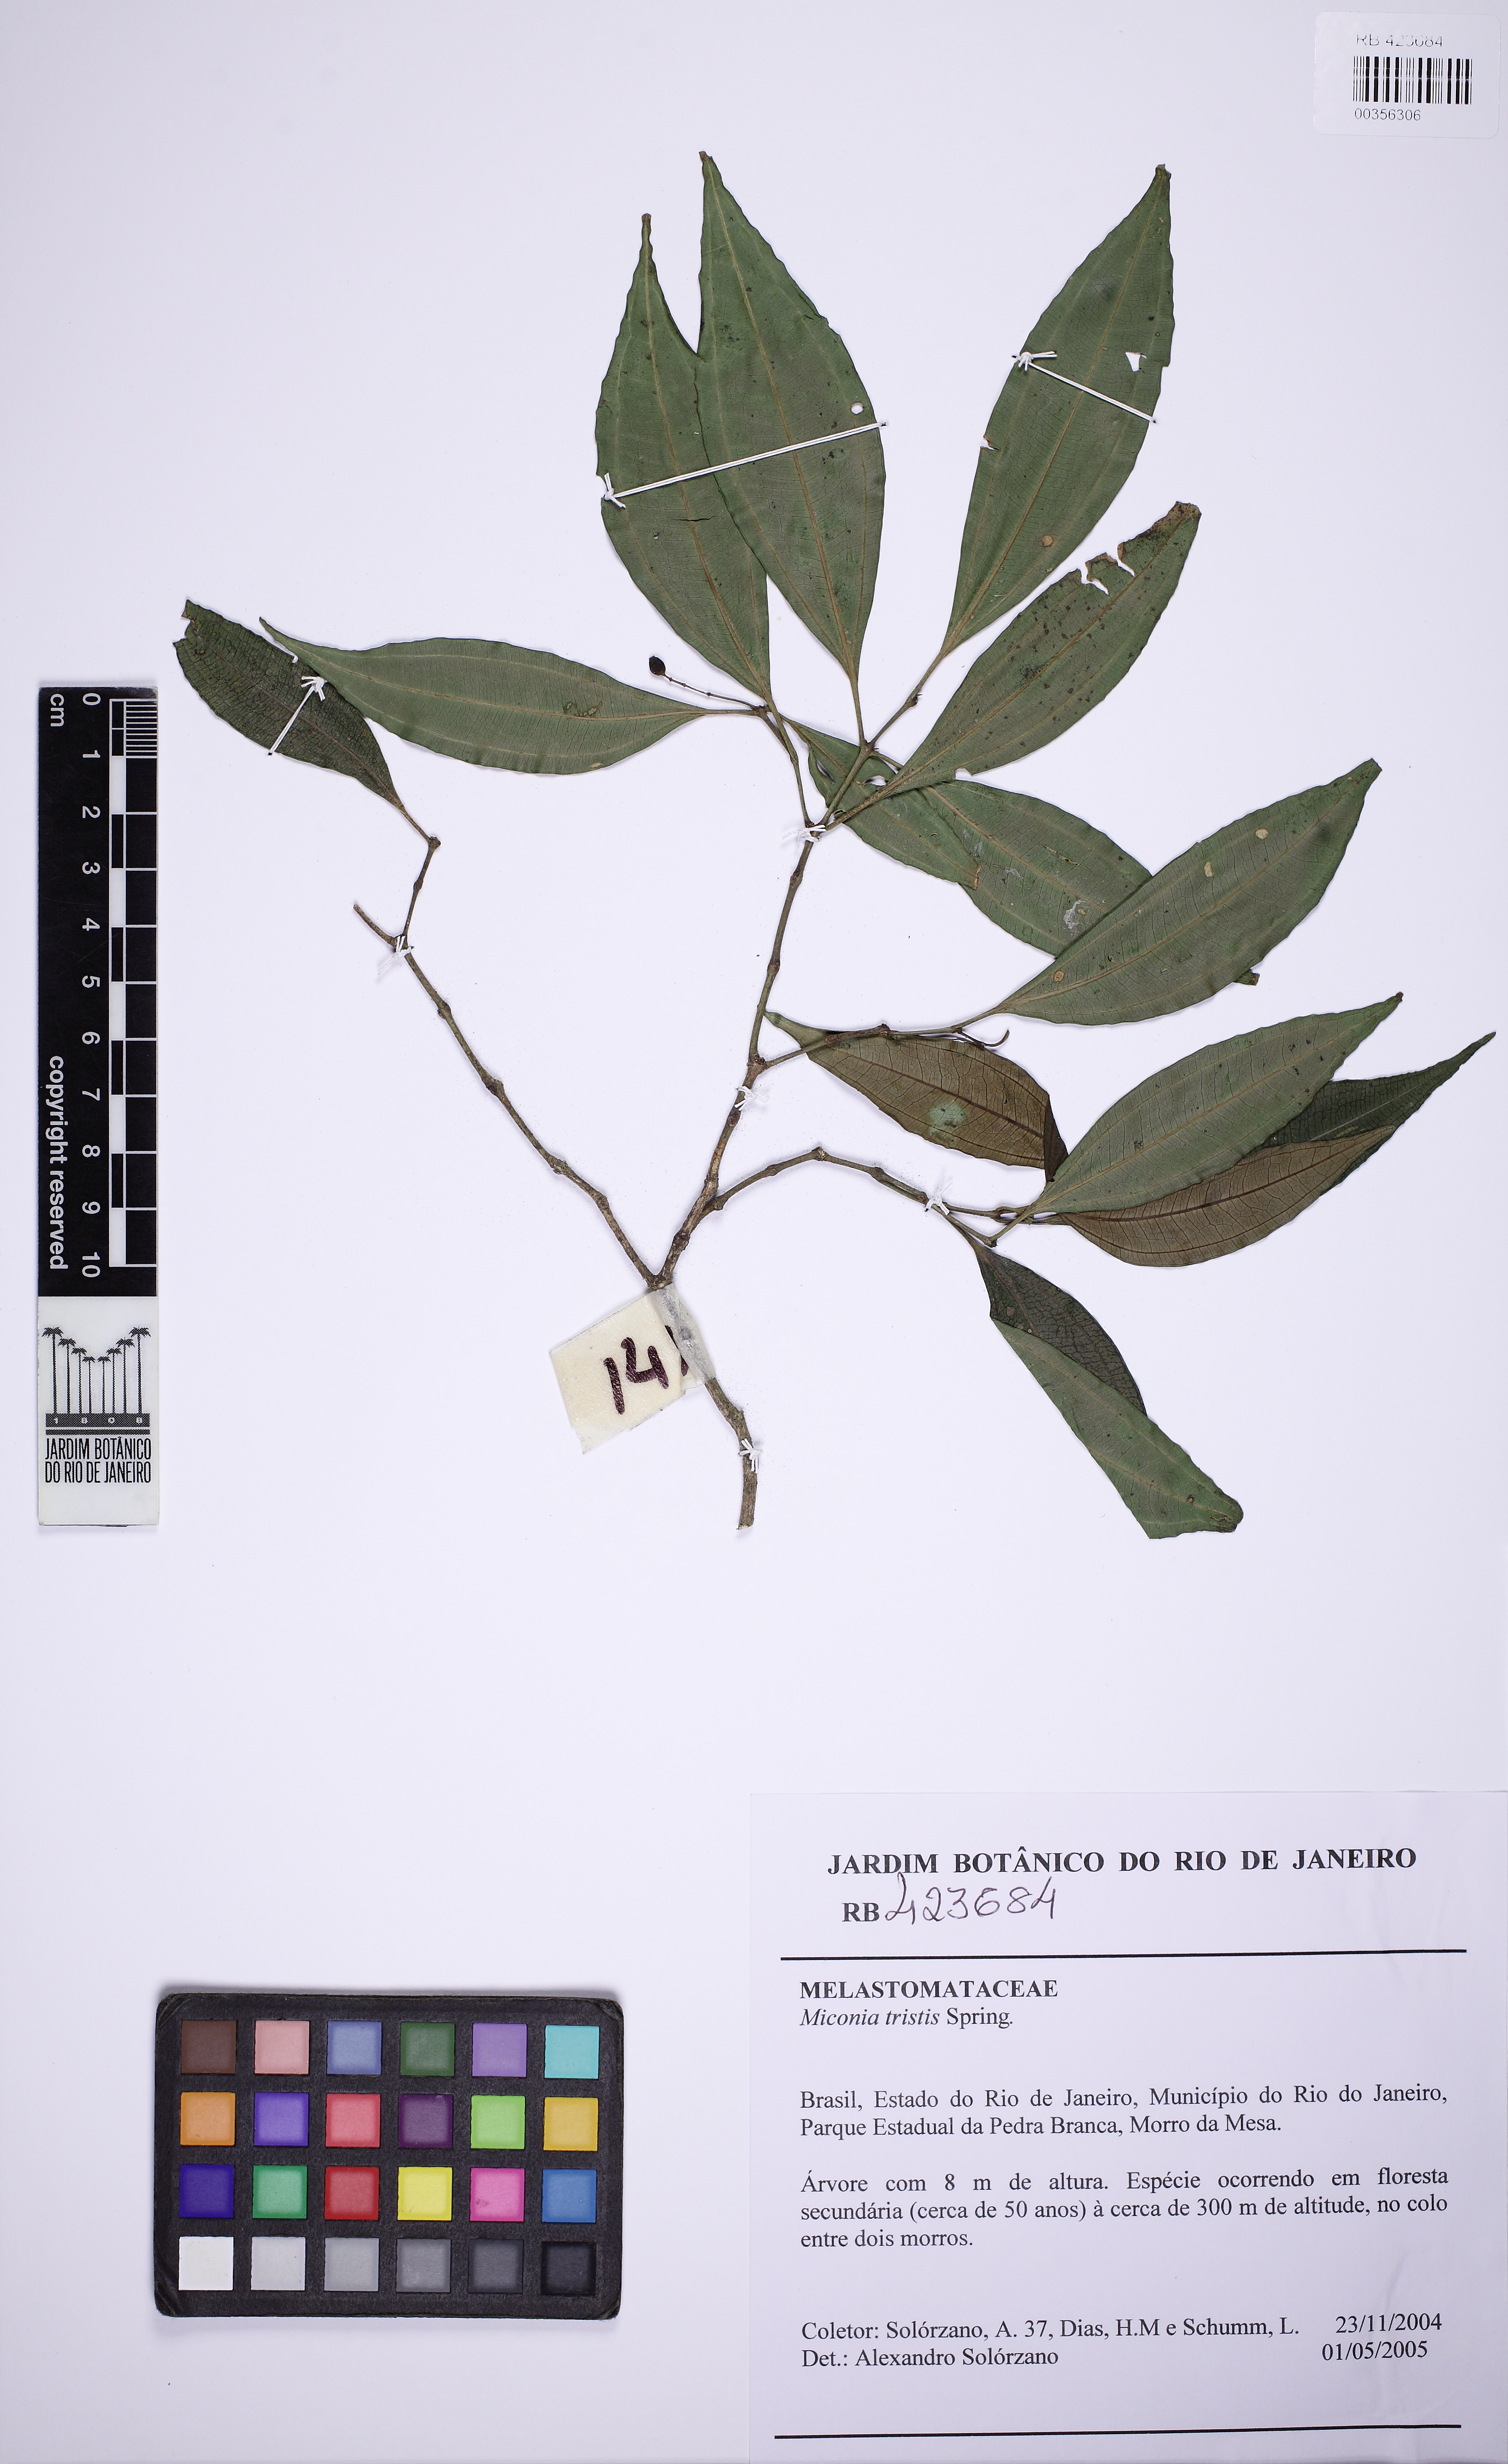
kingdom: Plantae
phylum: Tracheophyta
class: Magnoliopsida
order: Myrtales
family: Melastomataceae
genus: Miconia
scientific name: Miconia tristis
